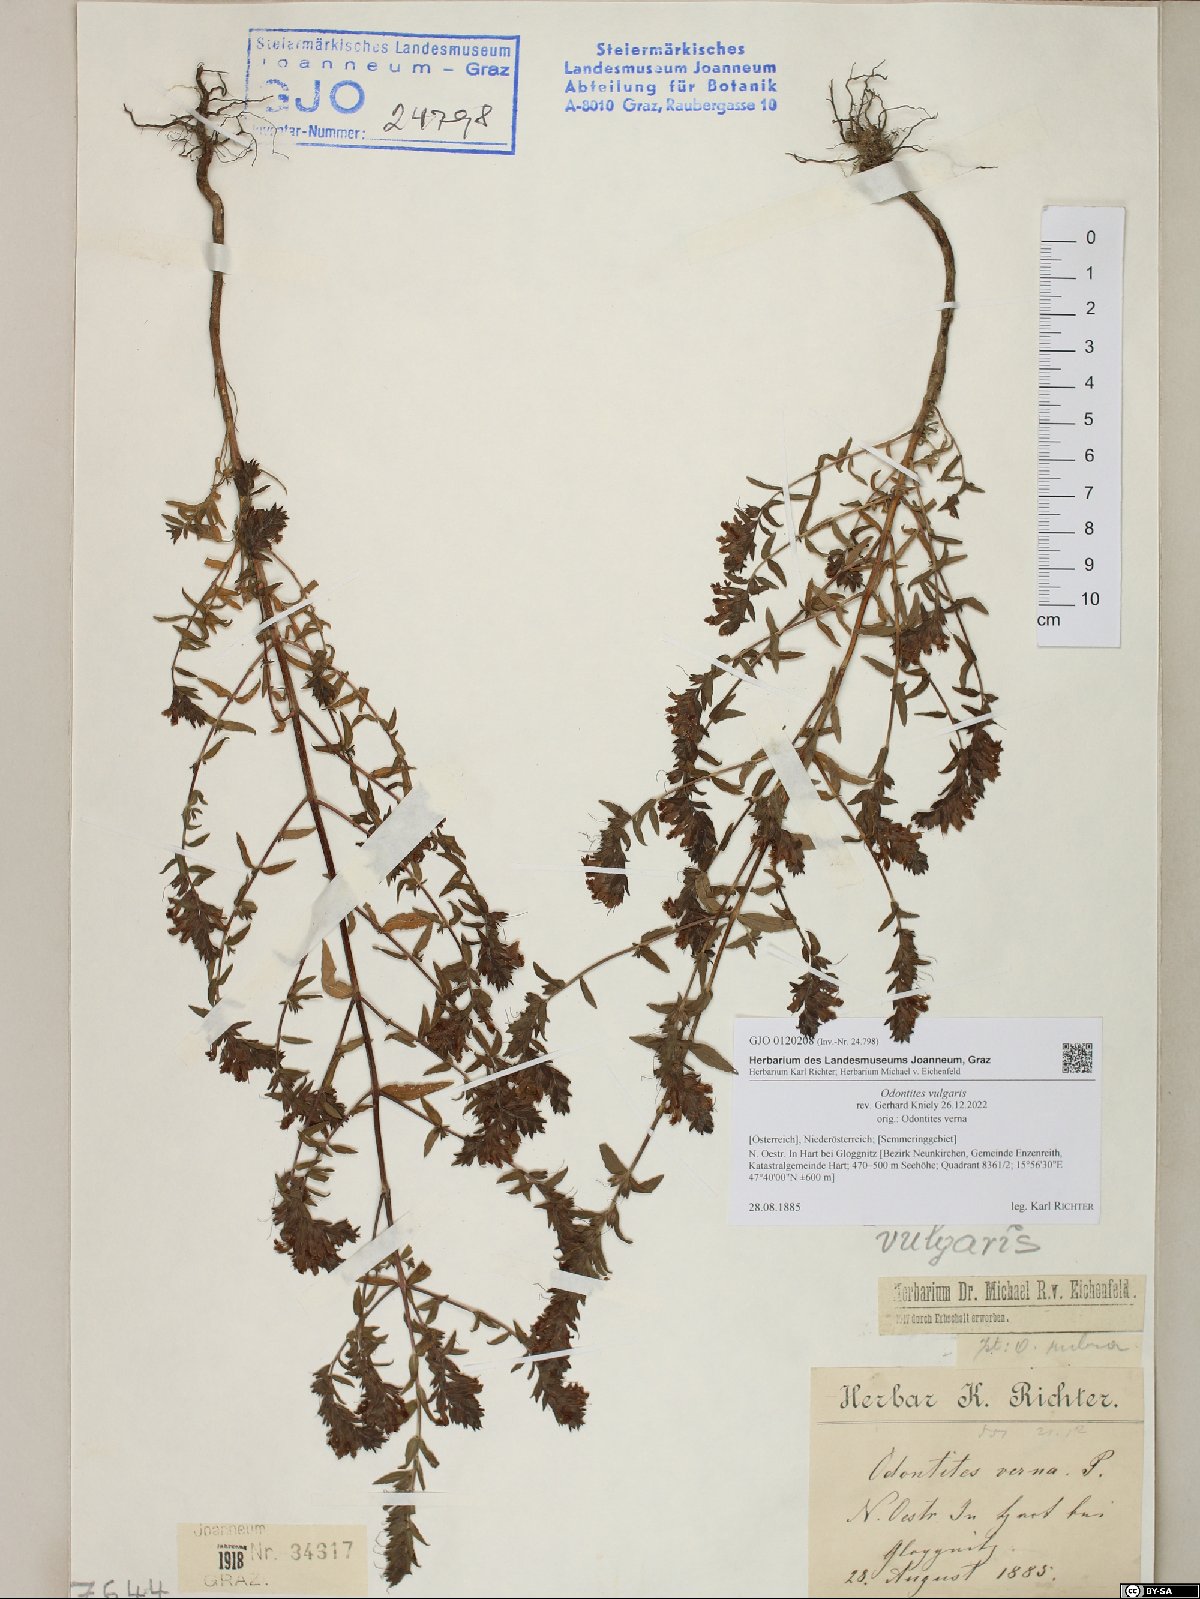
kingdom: Plantae
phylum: Tracheophyta
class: Magnoliopsida
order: Lamiales
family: Orobanchaceae
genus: Odontites
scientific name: Odontites vulgaris
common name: Broomrape
